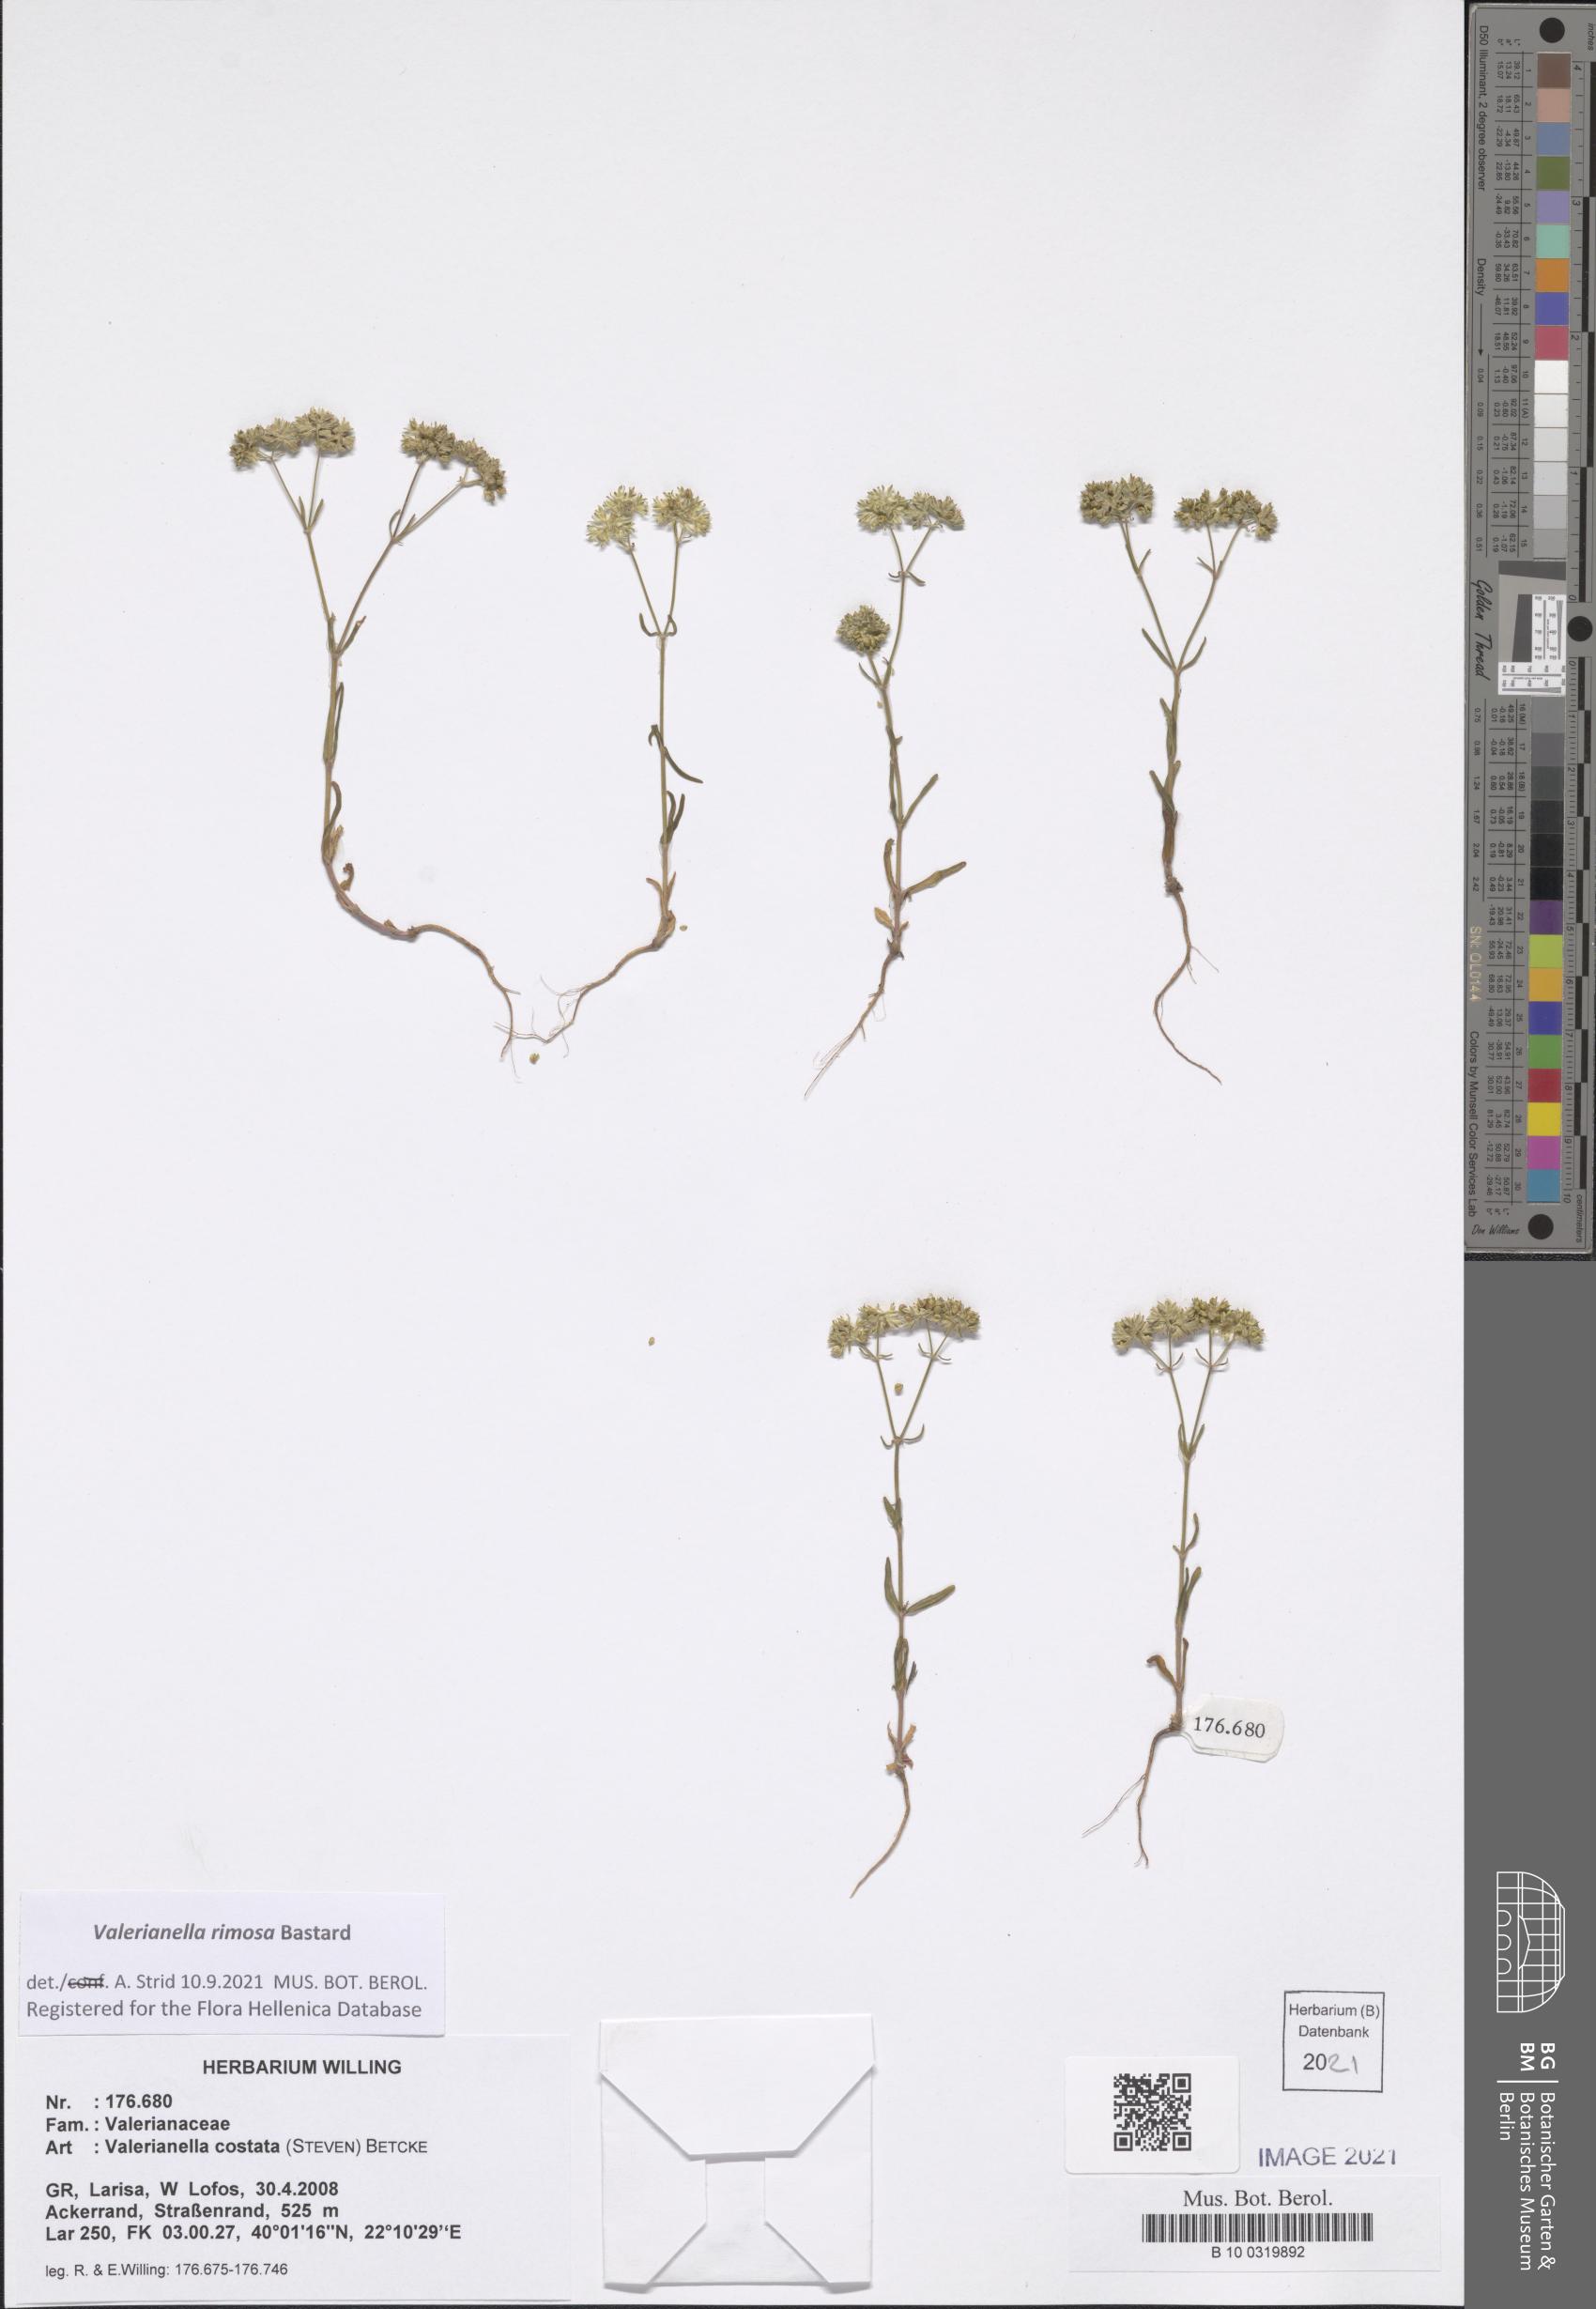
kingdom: Plantae
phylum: Tracheophyta
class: Magnoliopsida
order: Dipsacales
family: Caprifoliaceae
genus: Valerianella
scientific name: Valerianella rimosa
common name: Broad-fruited cornsalad
